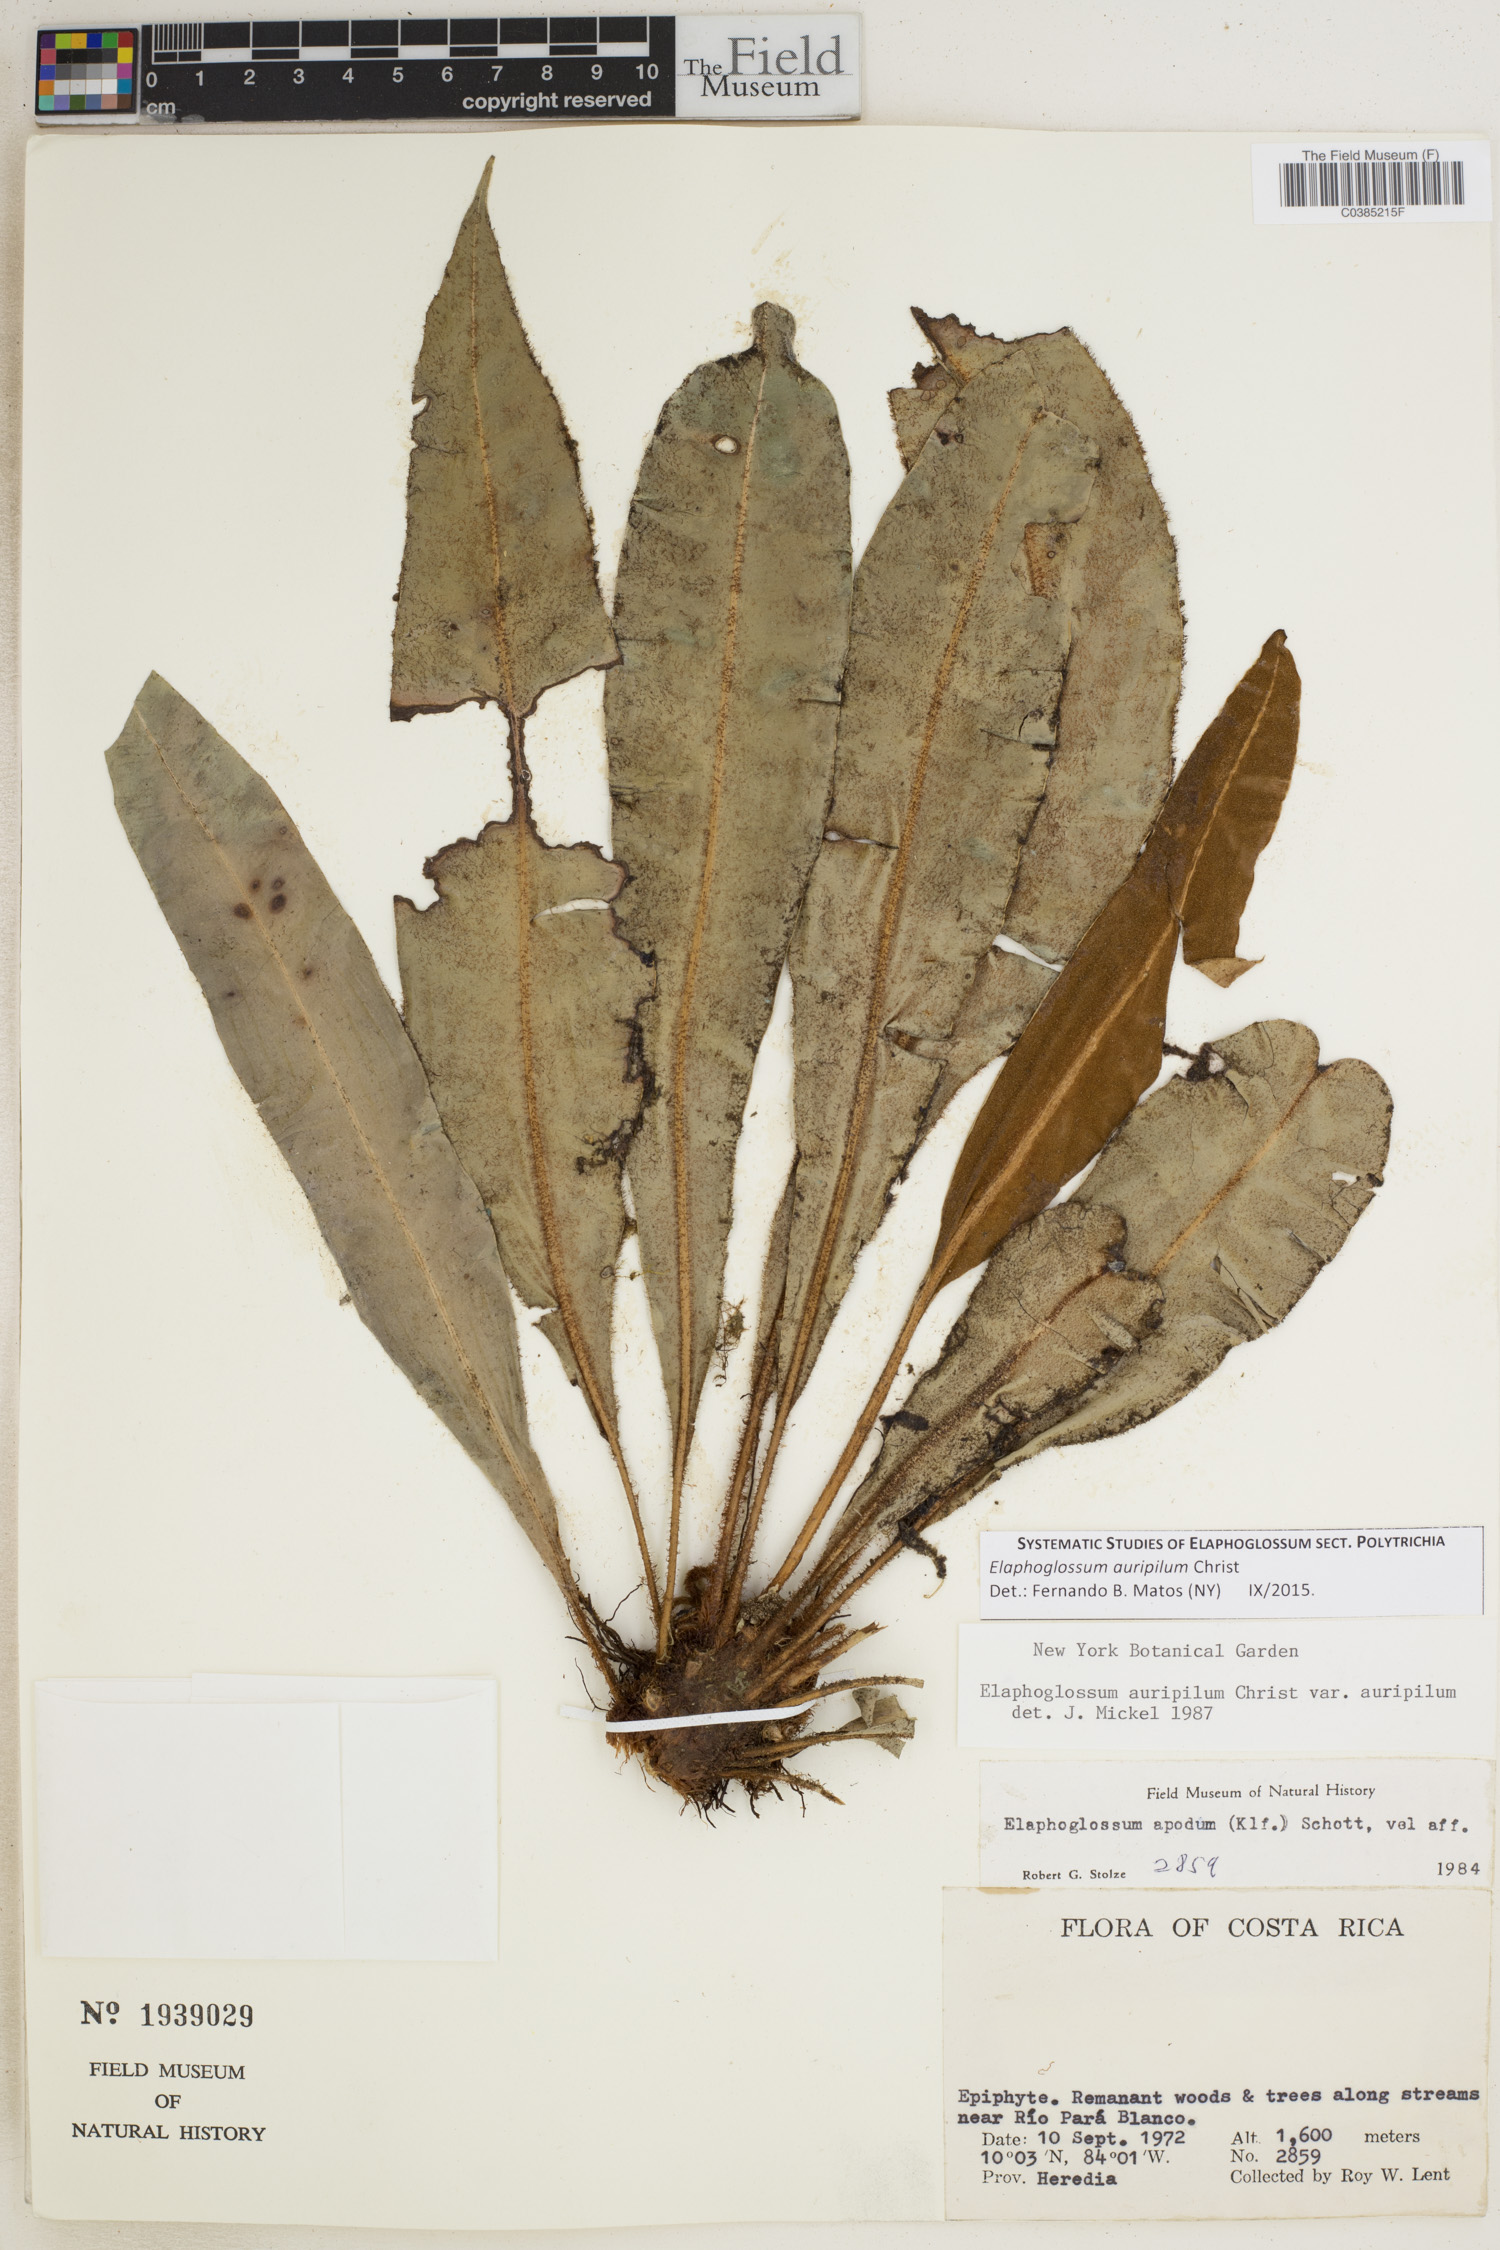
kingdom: Plantae
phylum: Tracheophyta
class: Polypodiopsida
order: Polypodiales
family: Dryopteridaceae
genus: Elaphoglossum
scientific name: Elaphoglossum auripilum
